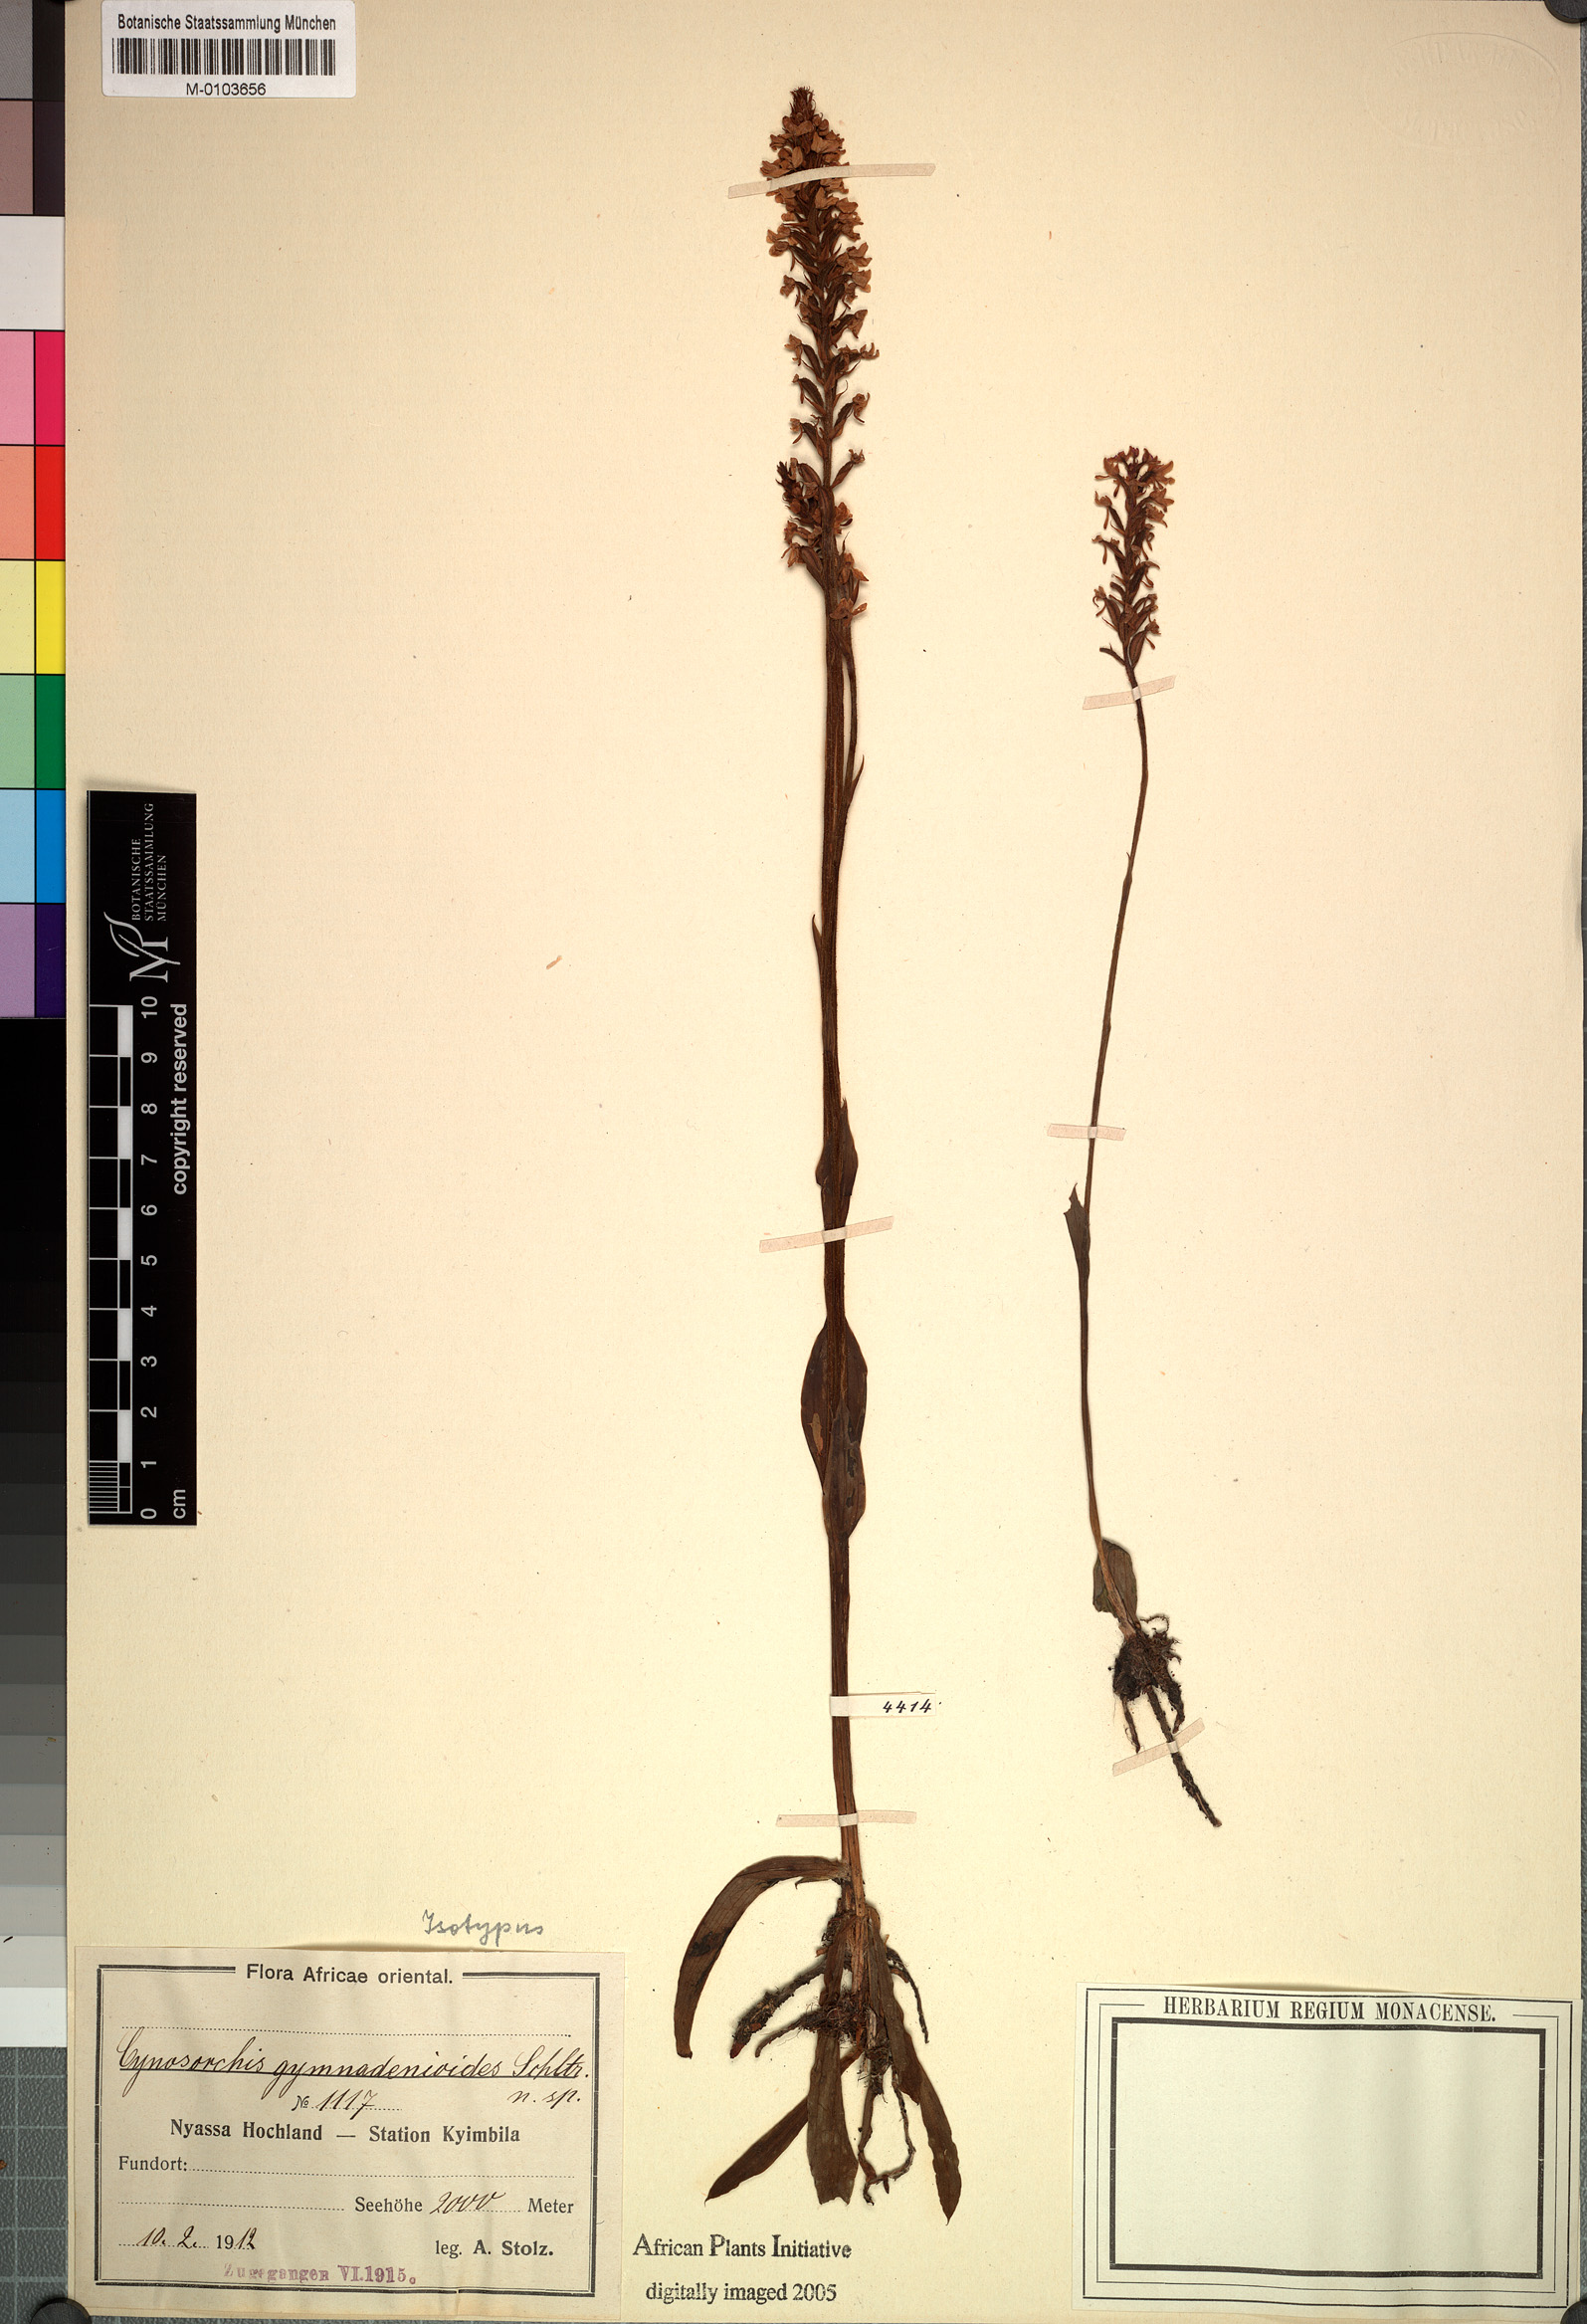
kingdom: Plantae
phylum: Tracheophyta
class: Liliopsida
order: Asparagales
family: Orchidaceae
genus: Cynorkis
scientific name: Cynorkis anacamptoides
